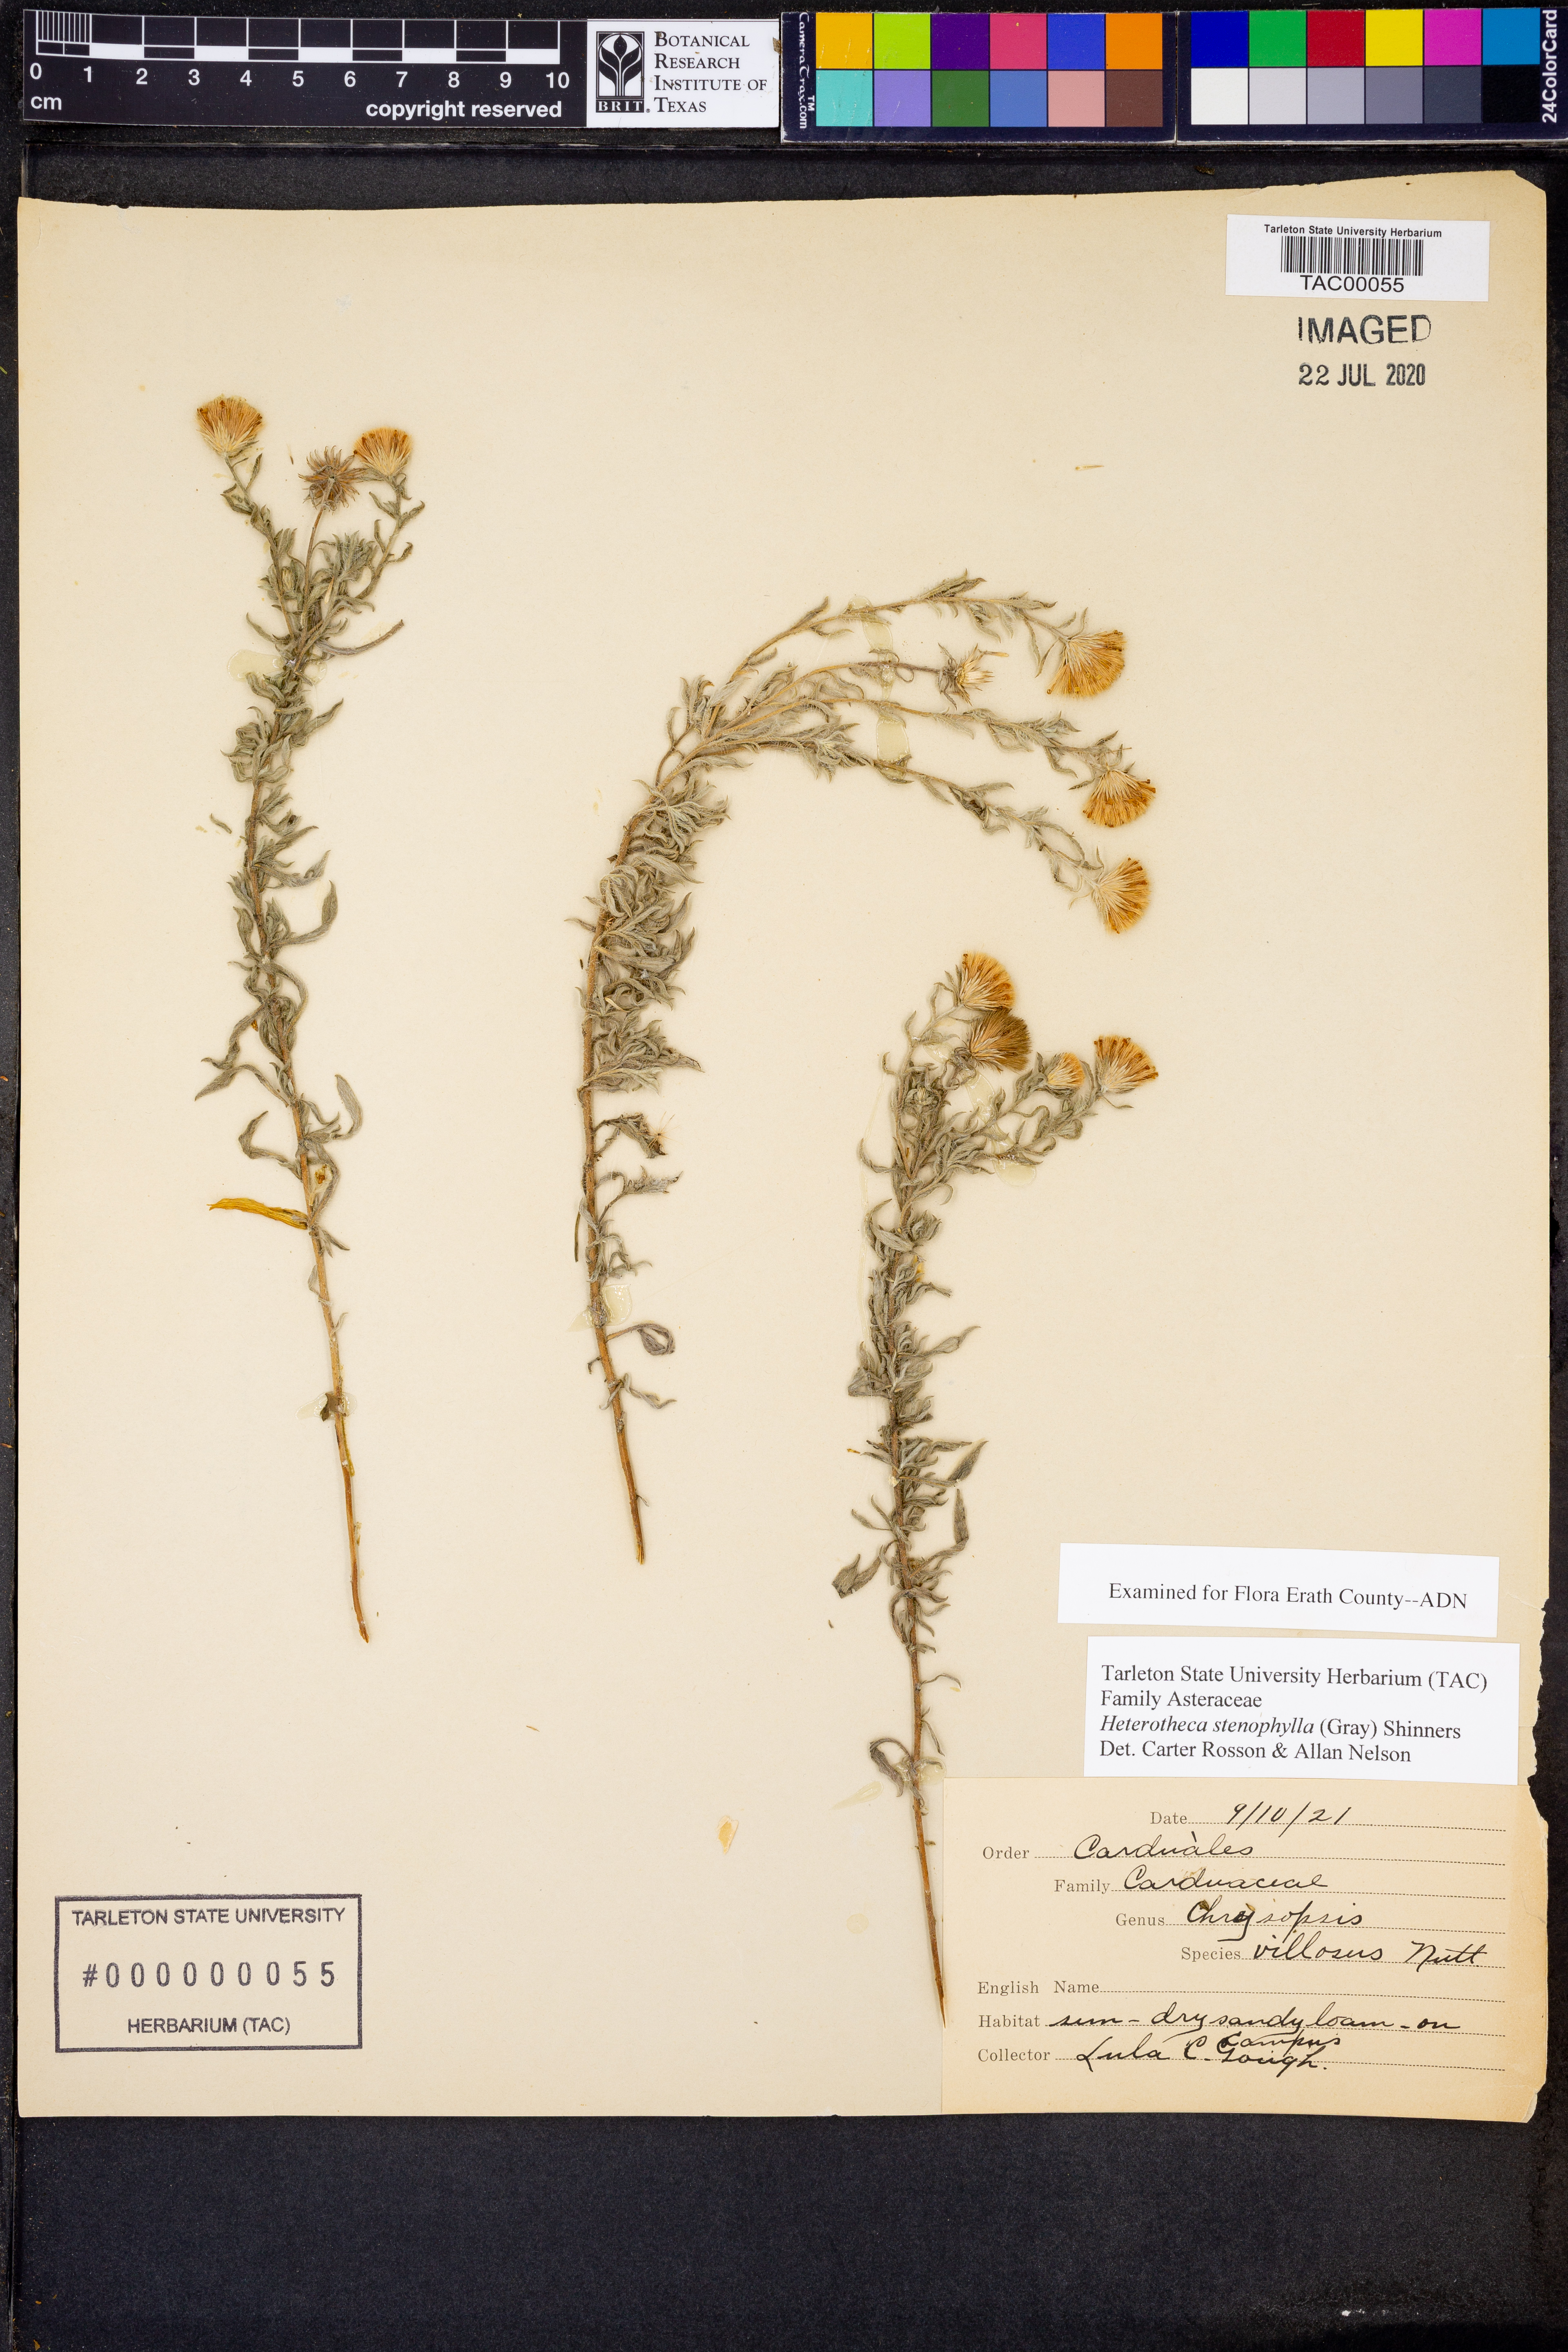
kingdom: Plantae
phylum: Tracheophyta
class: Magnoliopsida
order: Asterales
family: Asteraceae
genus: Heterotheca
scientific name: Heterotheca stenophylla
